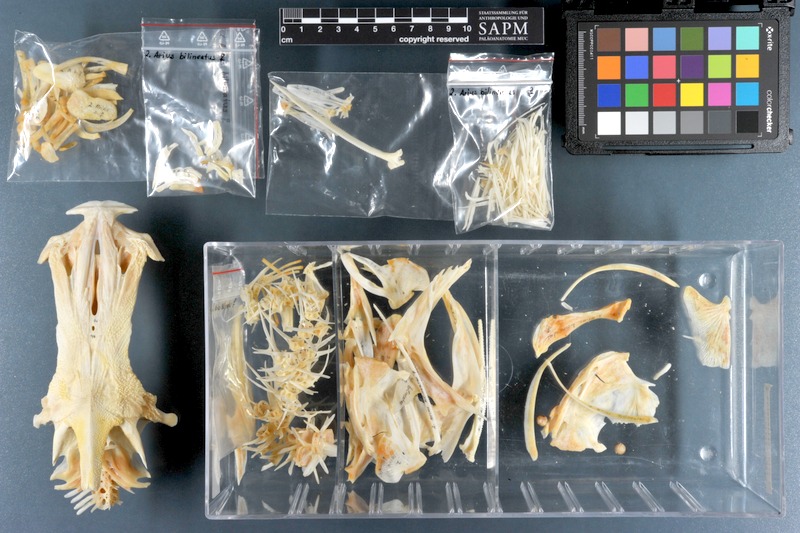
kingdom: Animalia
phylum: Chordata
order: Siluriformes
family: Ariidae
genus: Netuma
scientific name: Netuma bilineata
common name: Bronze catfish
